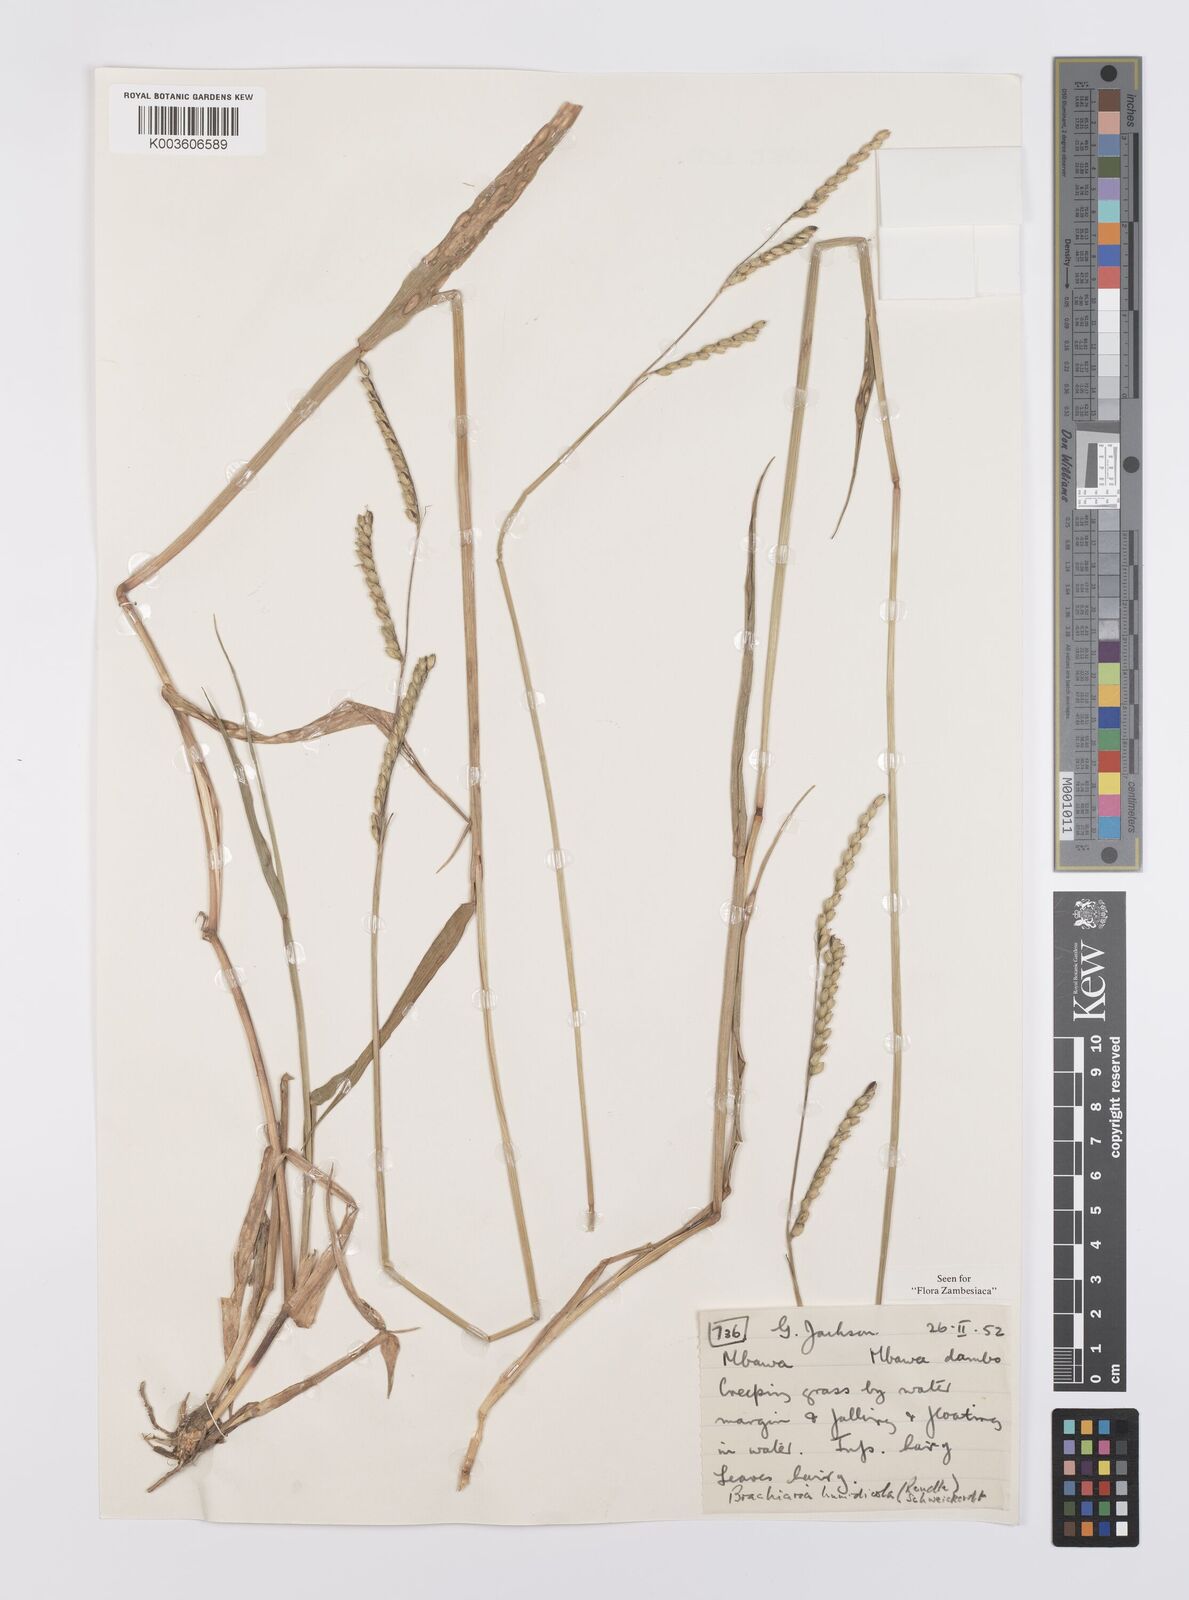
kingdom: Plantae
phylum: Tracheophyta
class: Liliopsida
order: Poales
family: Poaceae
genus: Urochloa
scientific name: Urochloa dictyoneura
